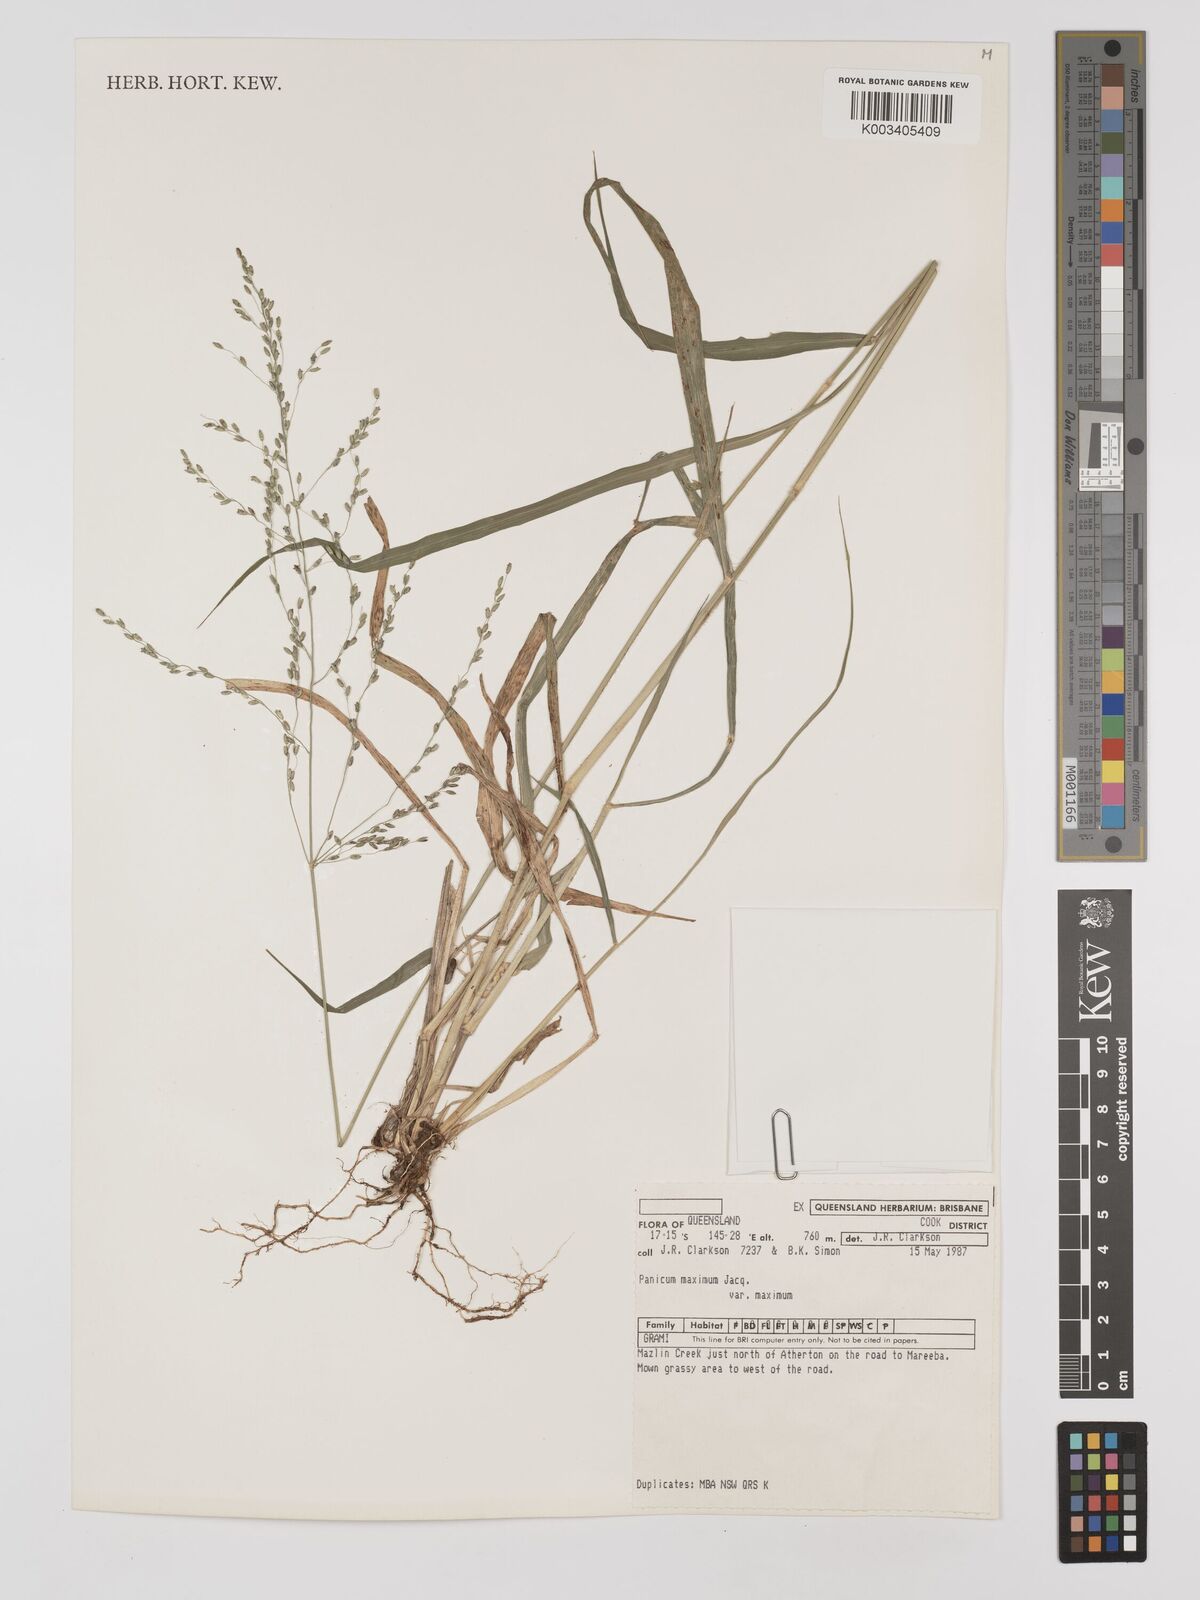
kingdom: Plantae
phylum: Tracheophyta
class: Liliopsida
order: Poales
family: Poaceae
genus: Megathyrsus
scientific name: Megathyrsus maximus
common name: Guineagrass
